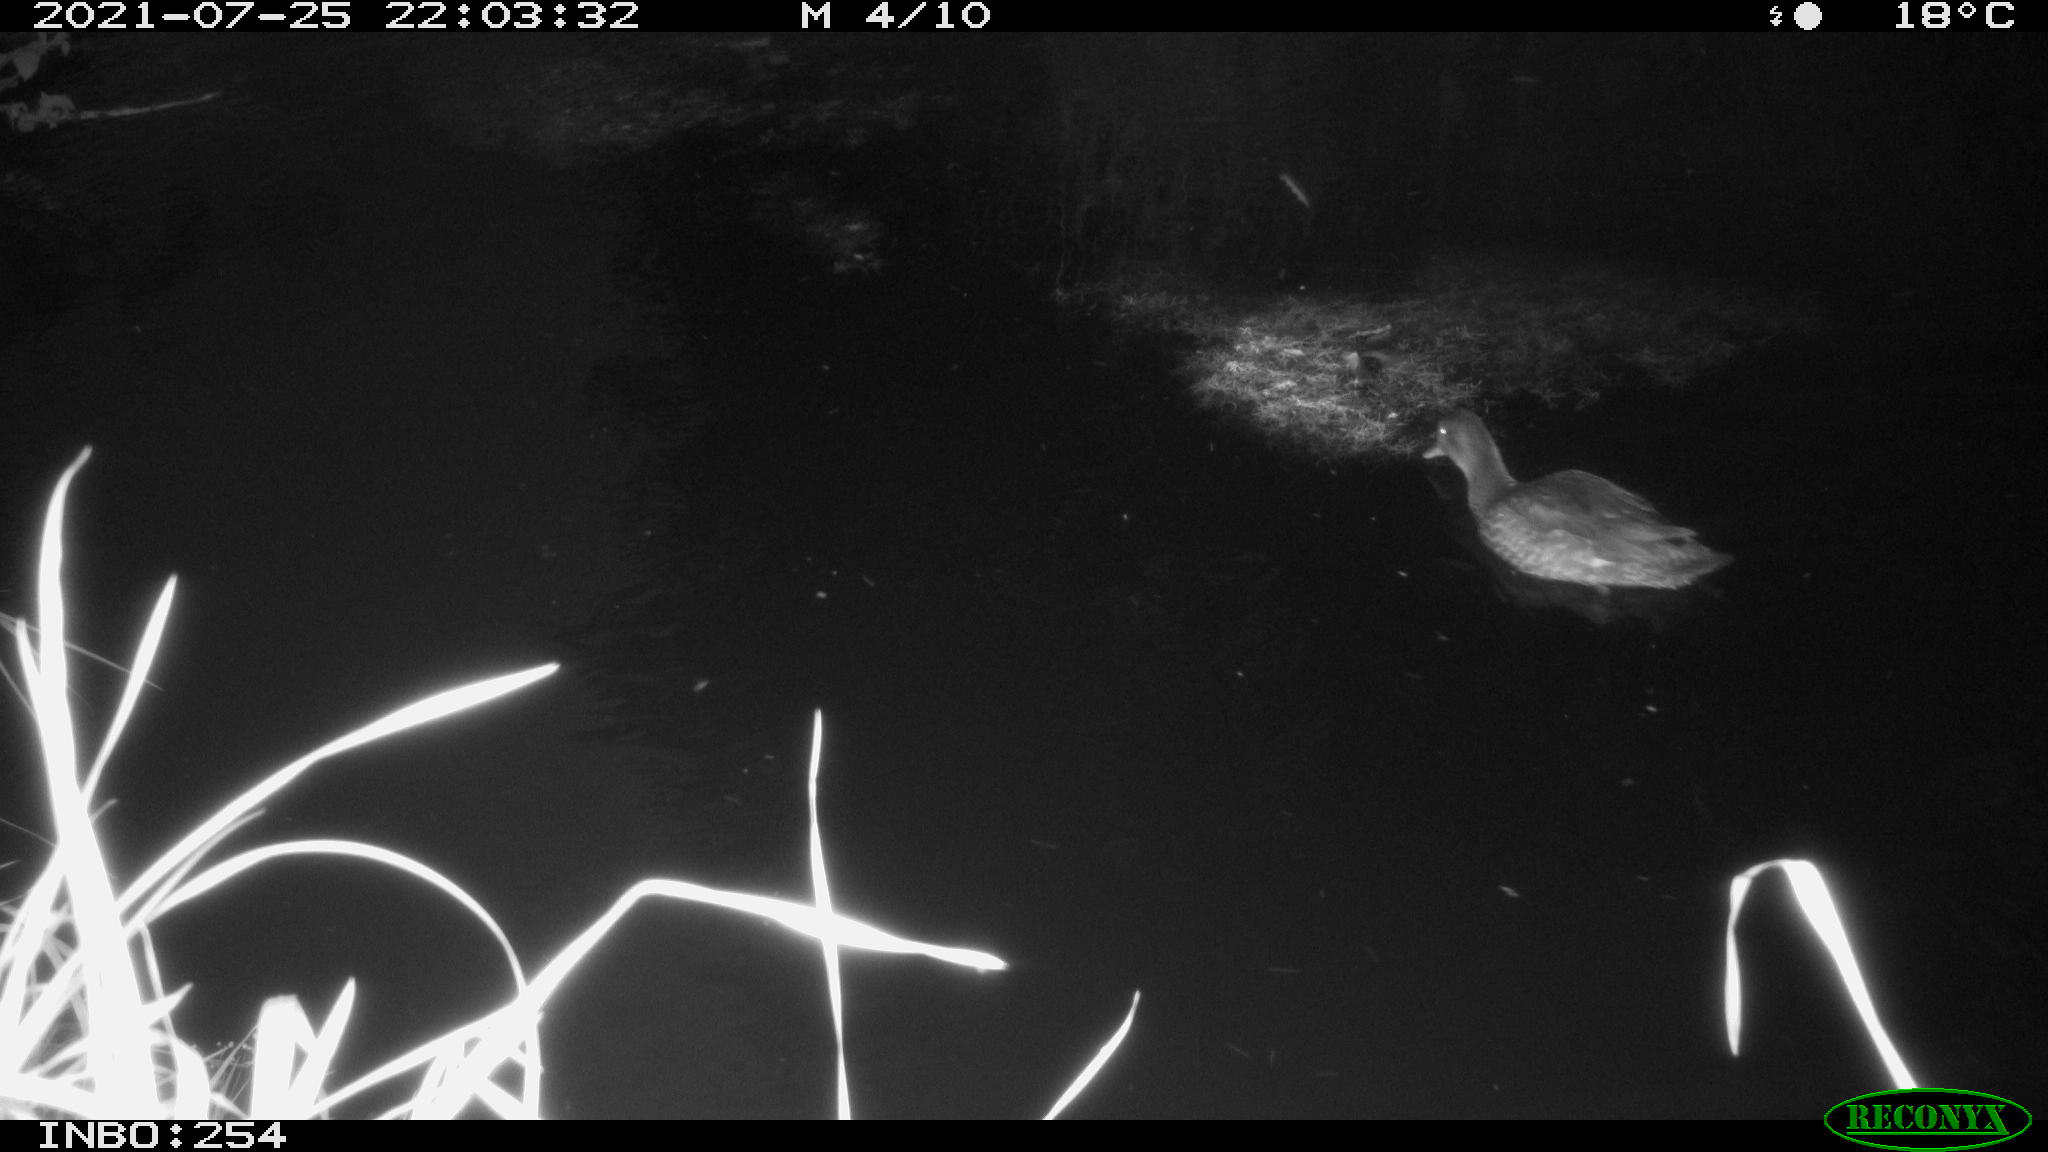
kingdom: Animalia
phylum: Chordata
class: Aves
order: Anseriformes
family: Anatidae
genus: Anas
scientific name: Anas platyrhynchos
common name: Mallard
